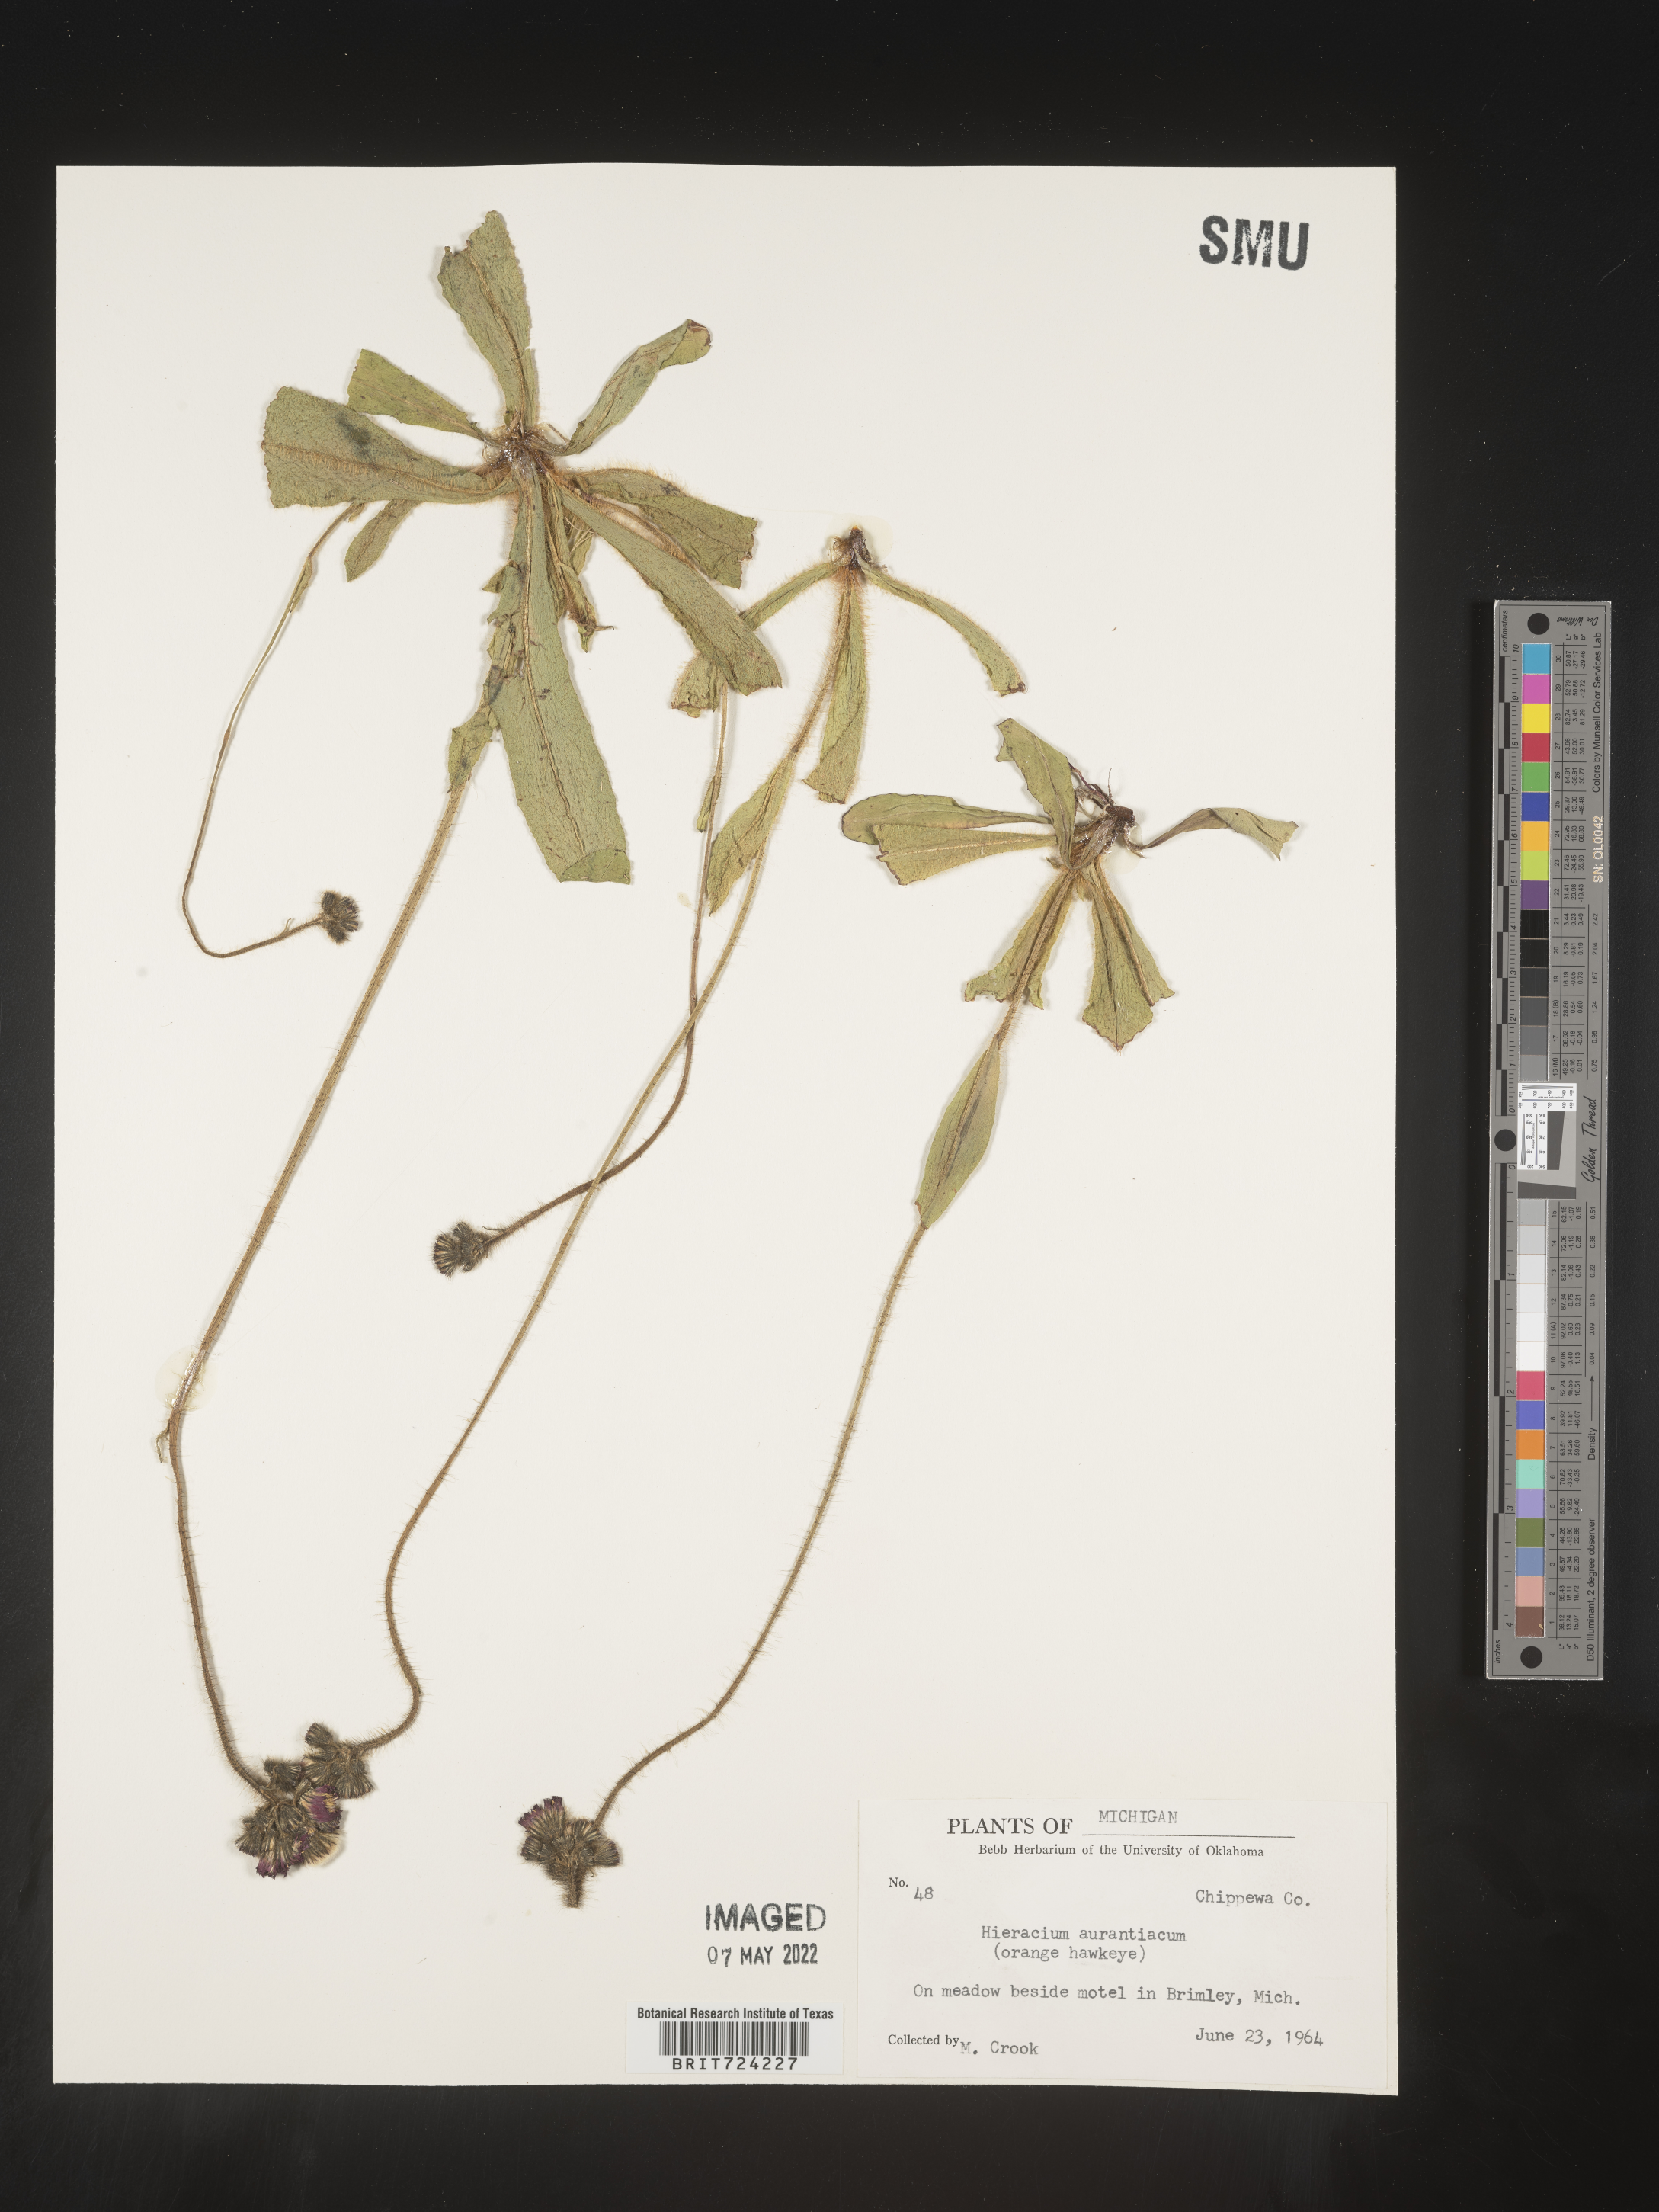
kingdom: Plantae
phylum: Tracheophyta
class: Magnoliopsida
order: Asterales
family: Asteraceae
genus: Pilosella
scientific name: Pilosella aurantiaca
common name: Fox-and-cubs
